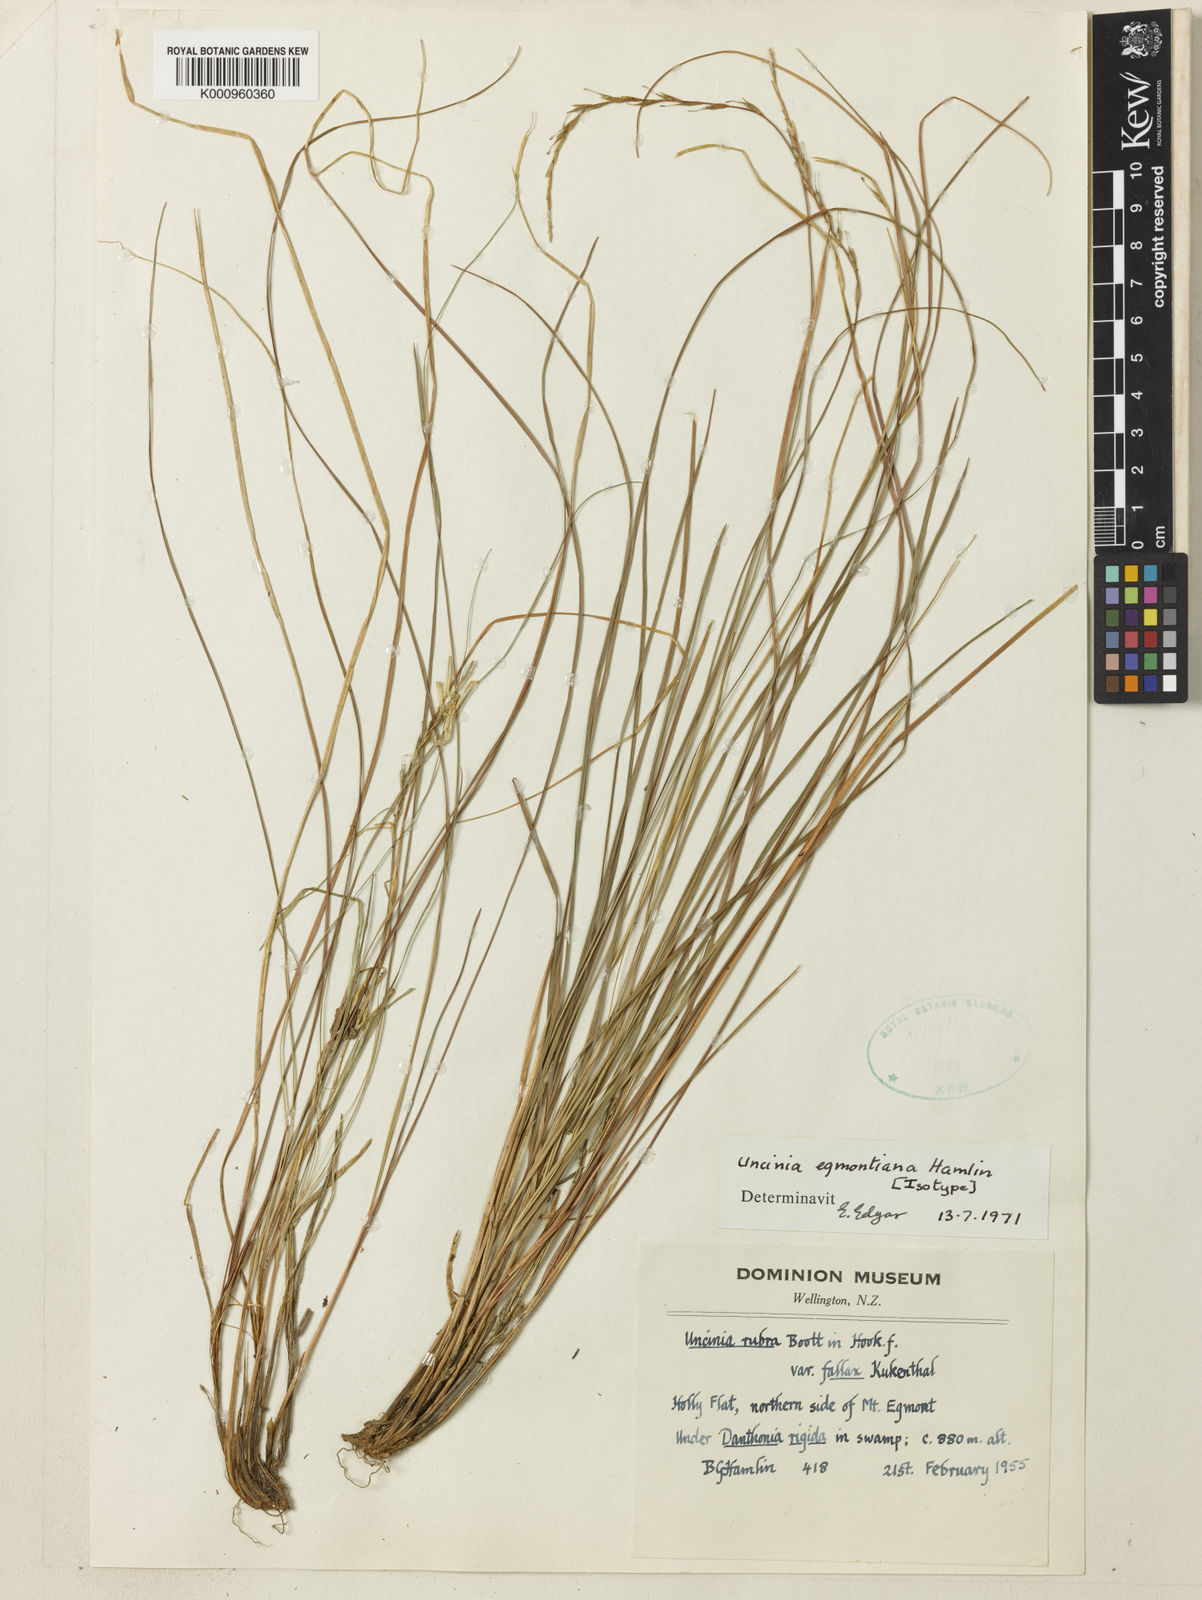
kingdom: Plantae
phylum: Tracheophyta
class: Liliopsida
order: Poales
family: Cyperaceae
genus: Carex
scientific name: Carex egmontiana
